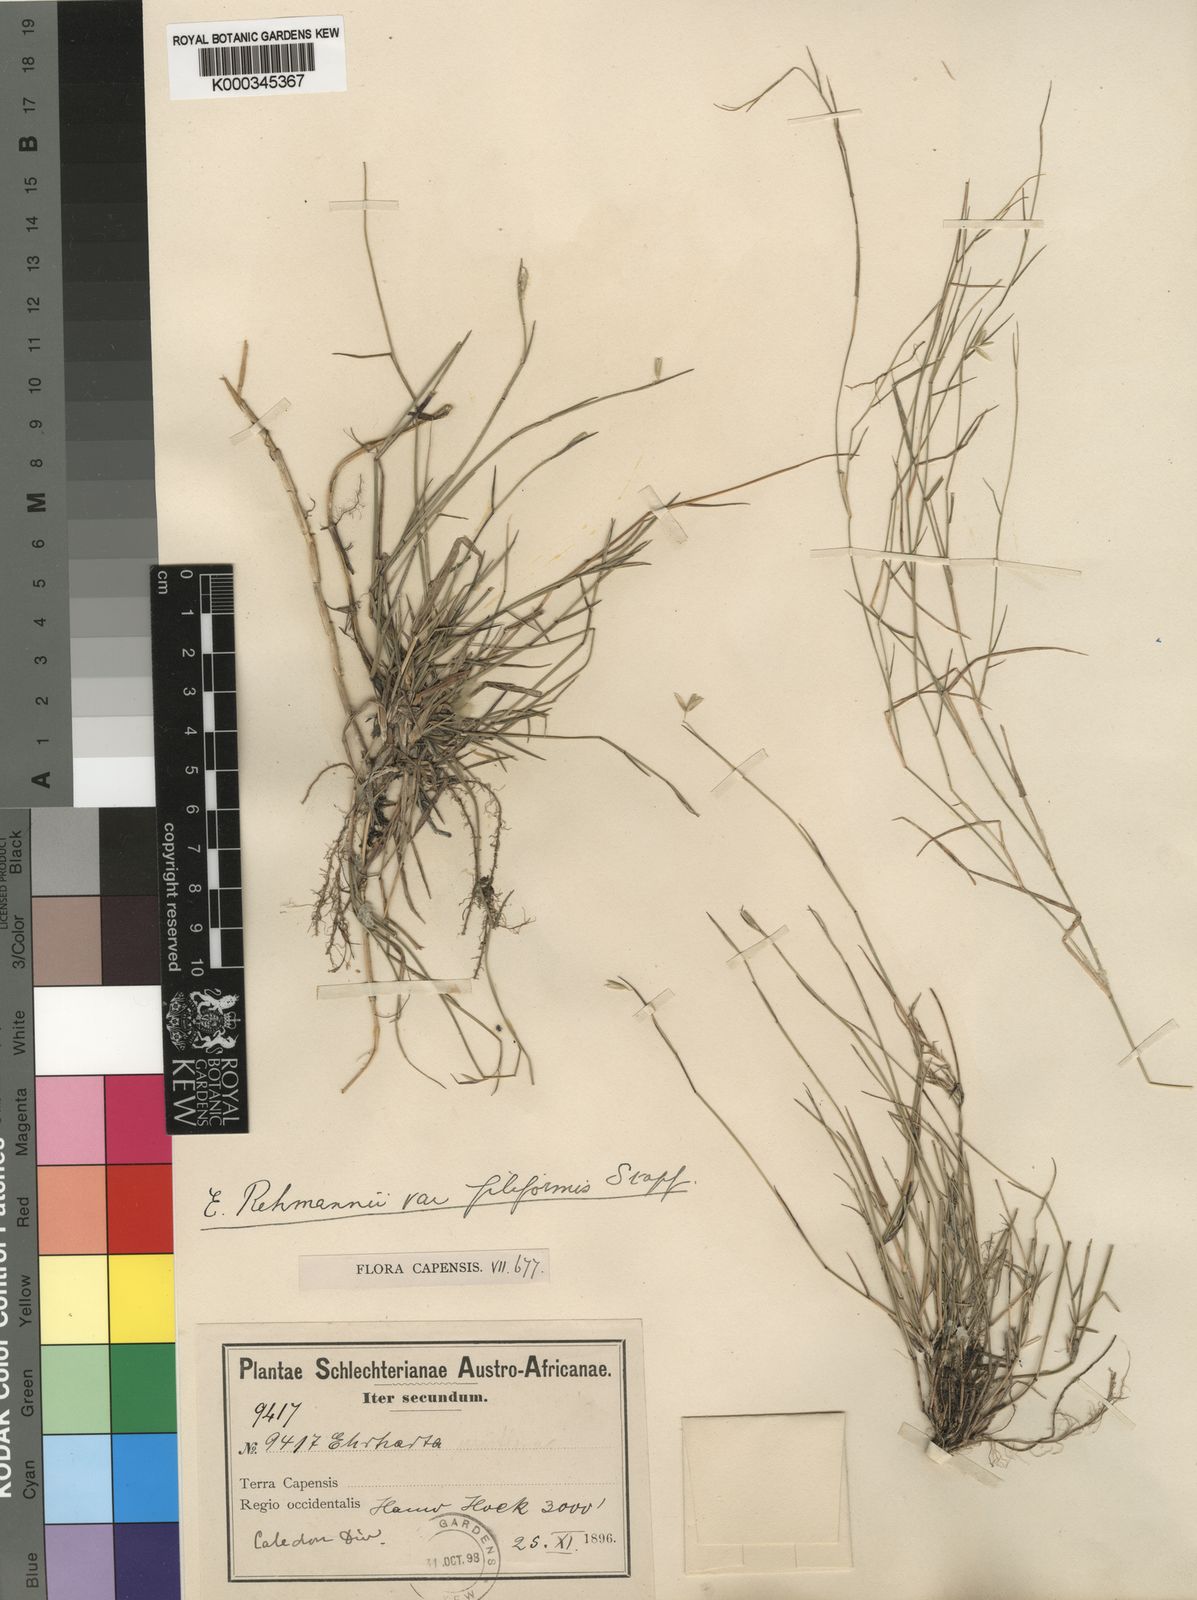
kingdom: Plantae
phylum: Tracheophyta
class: Liliopsida
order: Poales
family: Poaceae
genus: Ehrharta
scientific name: Ehrharta rehmannii
